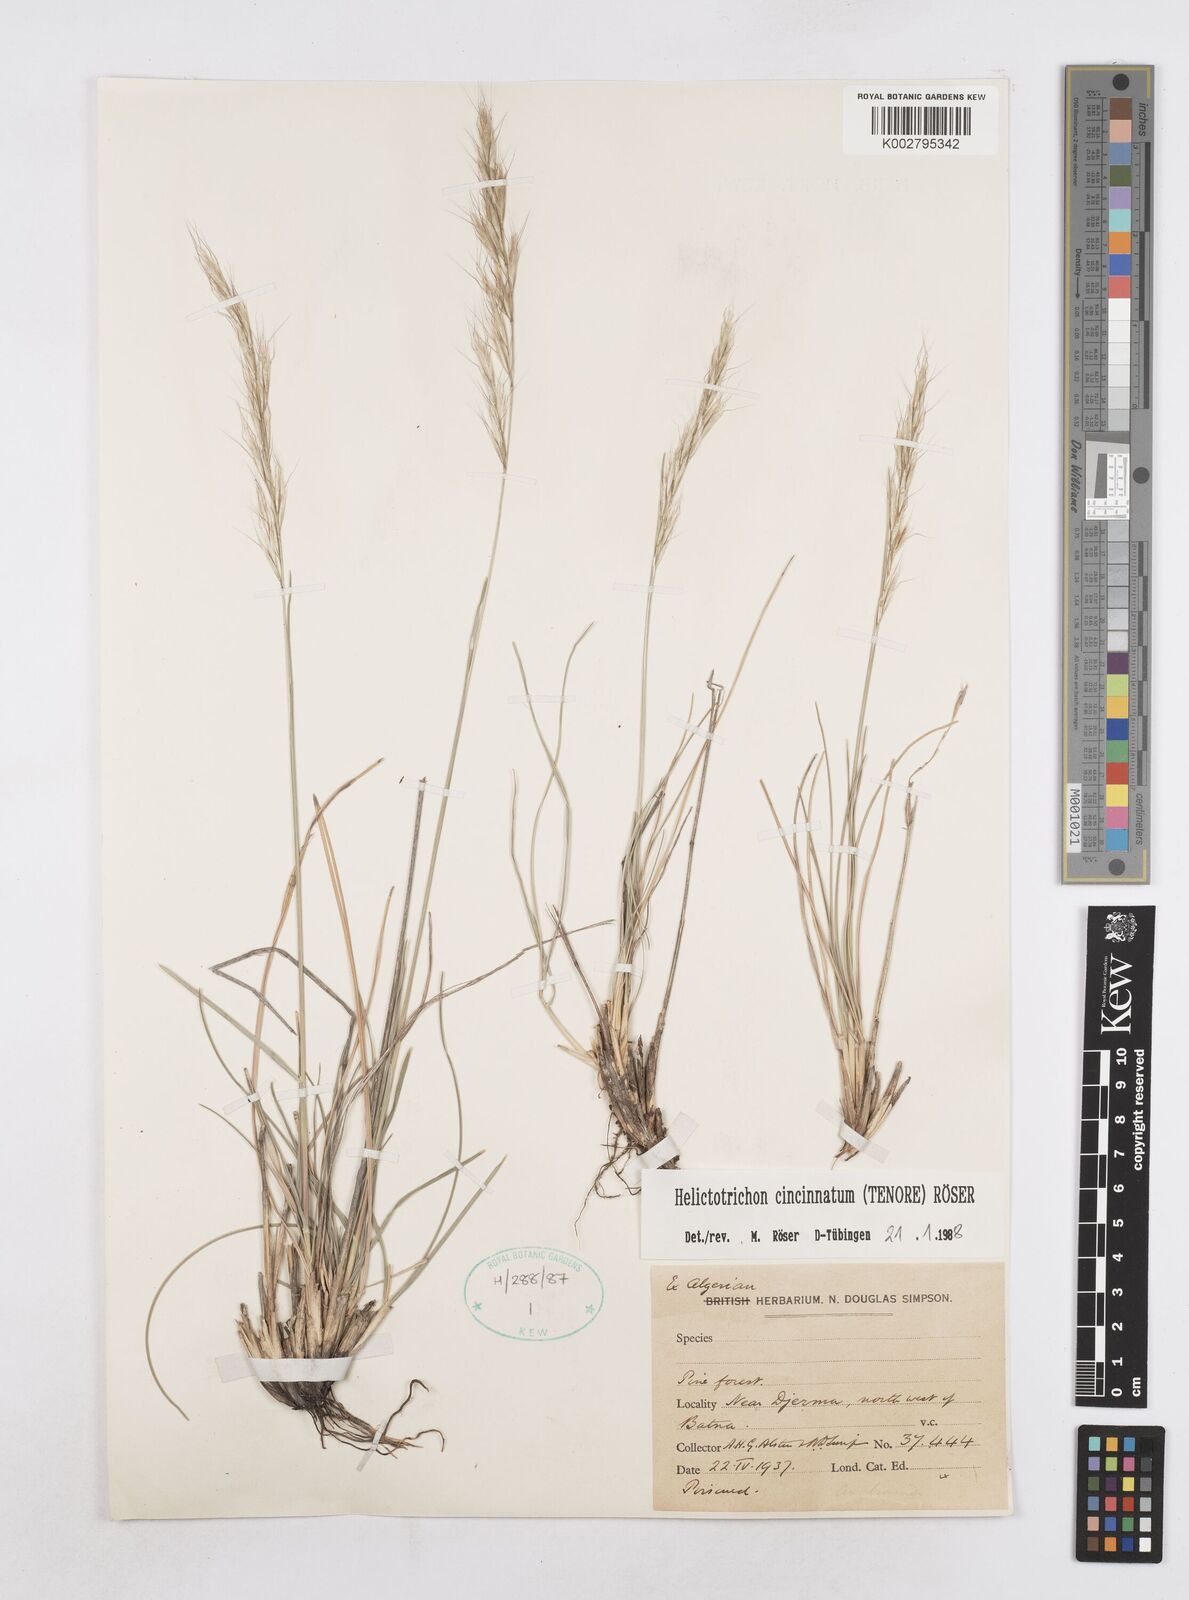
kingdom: Plantae
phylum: Tracheophyta
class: Liliopsida
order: Poales
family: Poaceae
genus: Helictochloa
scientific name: Helictochloa cincinnata
